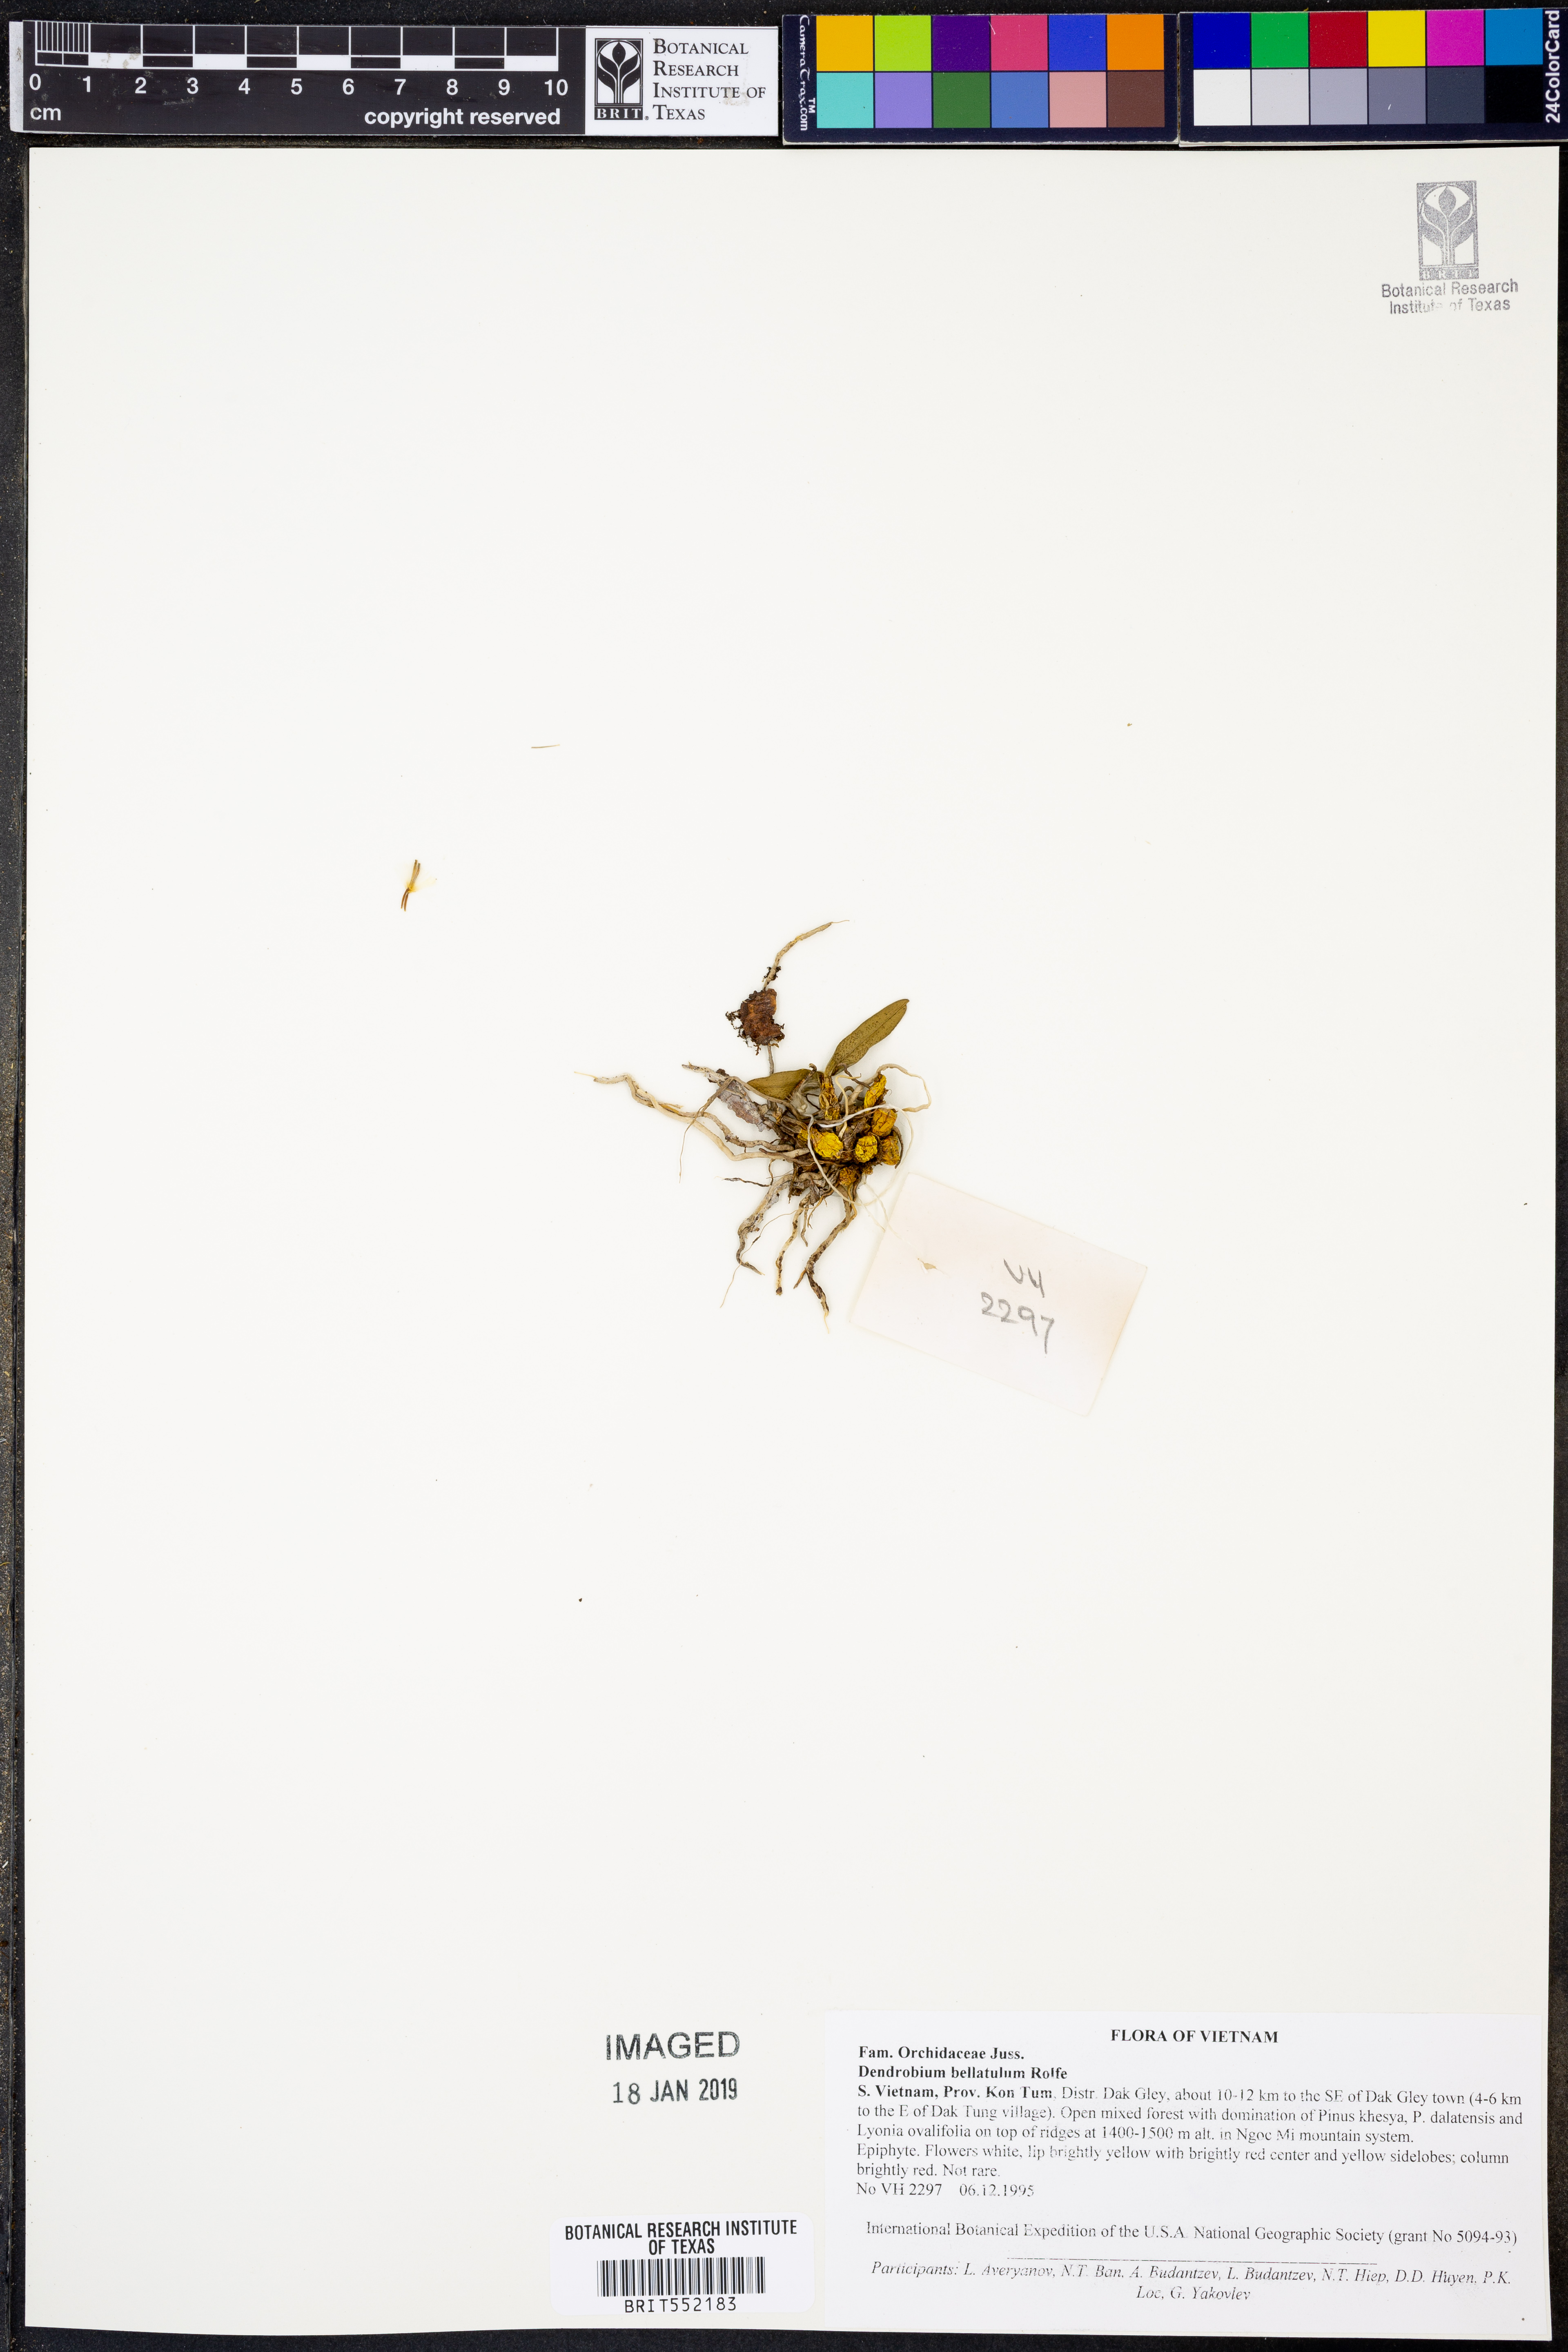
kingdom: Plantae
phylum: Tracheophyta
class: Liliopsida
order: Asparagales
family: Orchidaceae
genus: Dendrobium
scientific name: Dendrobium bellatulum
